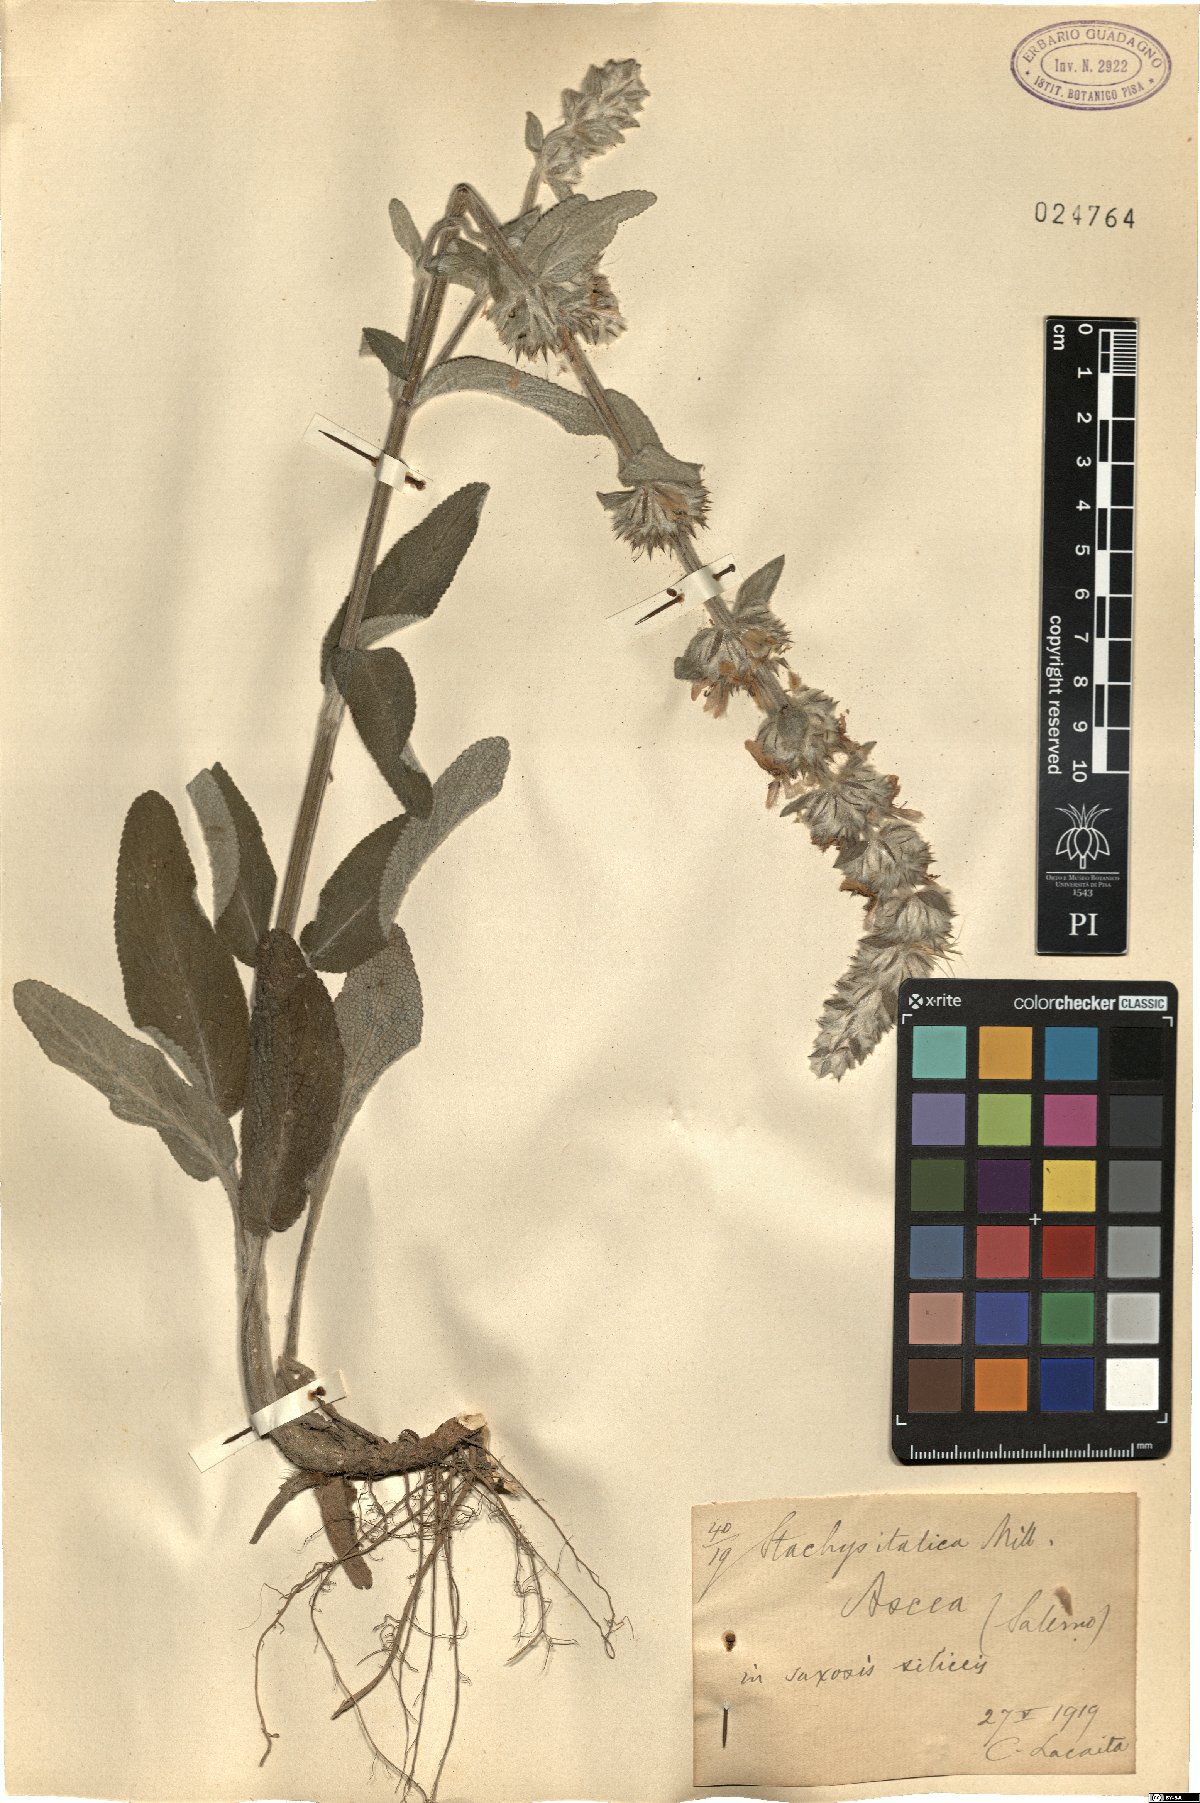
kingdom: Plantae
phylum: Tracheophyta
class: Magnoliopsida
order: Lamiales
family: Lamiaceae
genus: Sideritis
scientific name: Sideritis italica
